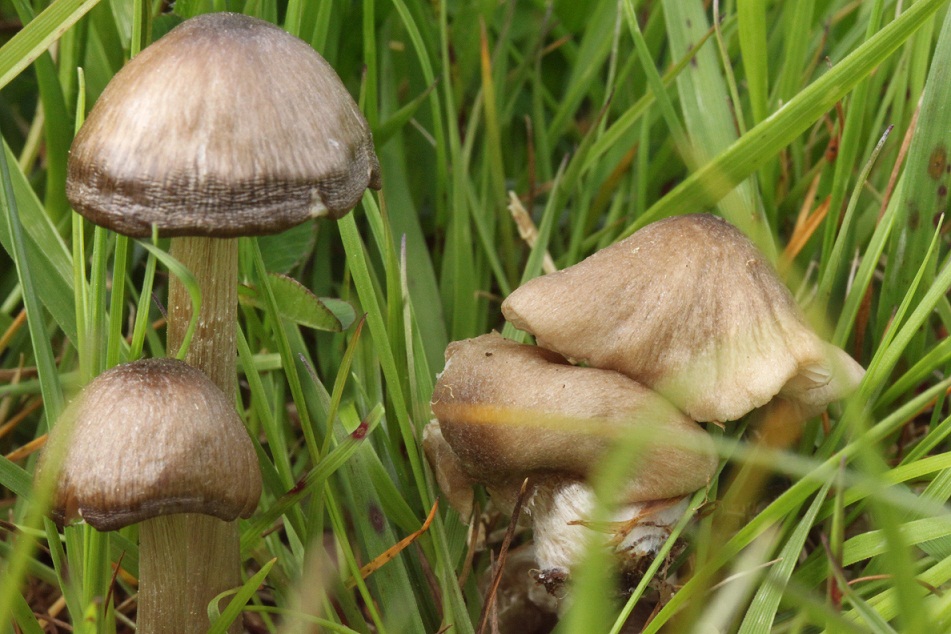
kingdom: Fungi
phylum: Basidiomycota
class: Agaricomycetes
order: Agaricales
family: Entolomataceae
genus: Entoloma
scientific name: Entoloma luteofuscum
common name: stjernesporet rødblad
